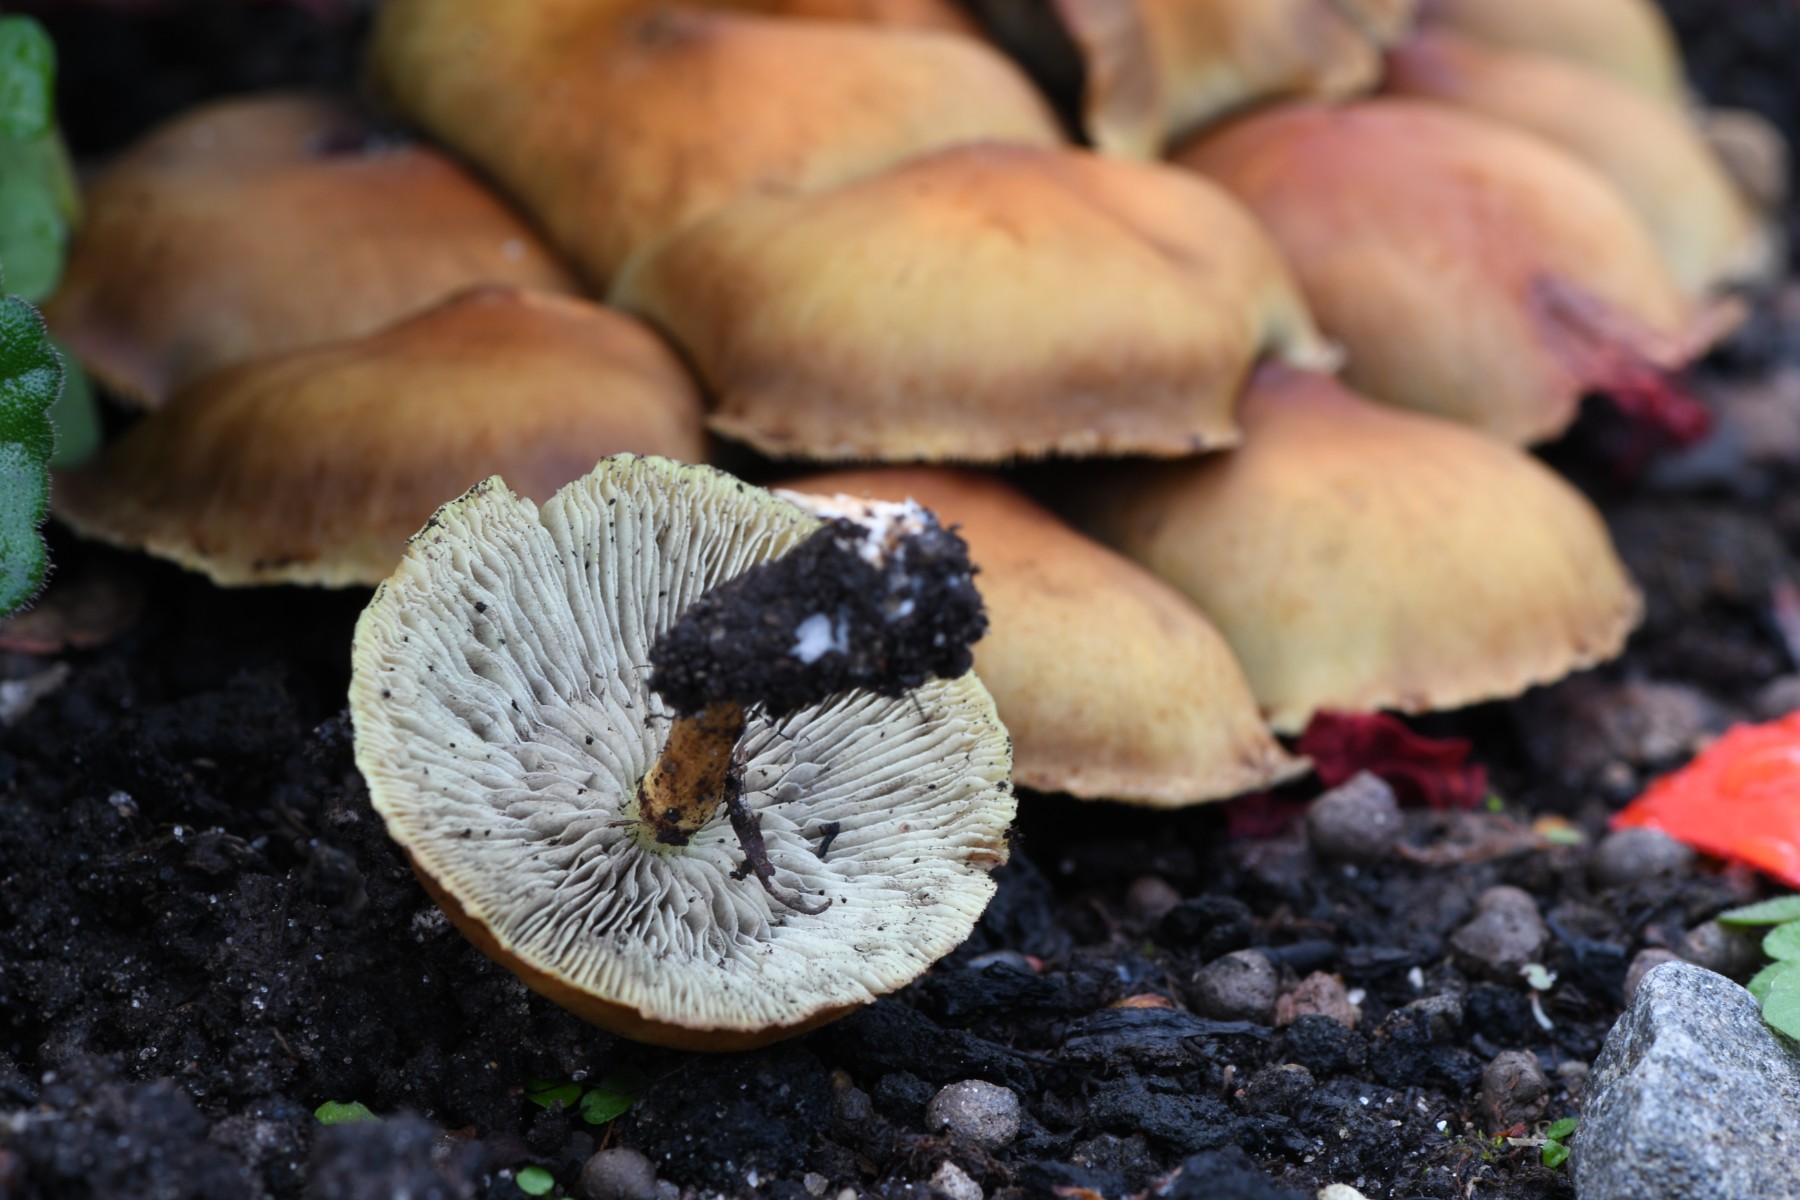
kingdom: Fungi
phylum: Basidiomycota
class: Agaricomycetes
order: Agaricales
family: Strophariaceae
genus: Hypholoma
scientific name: Hypholoma fasciculare
